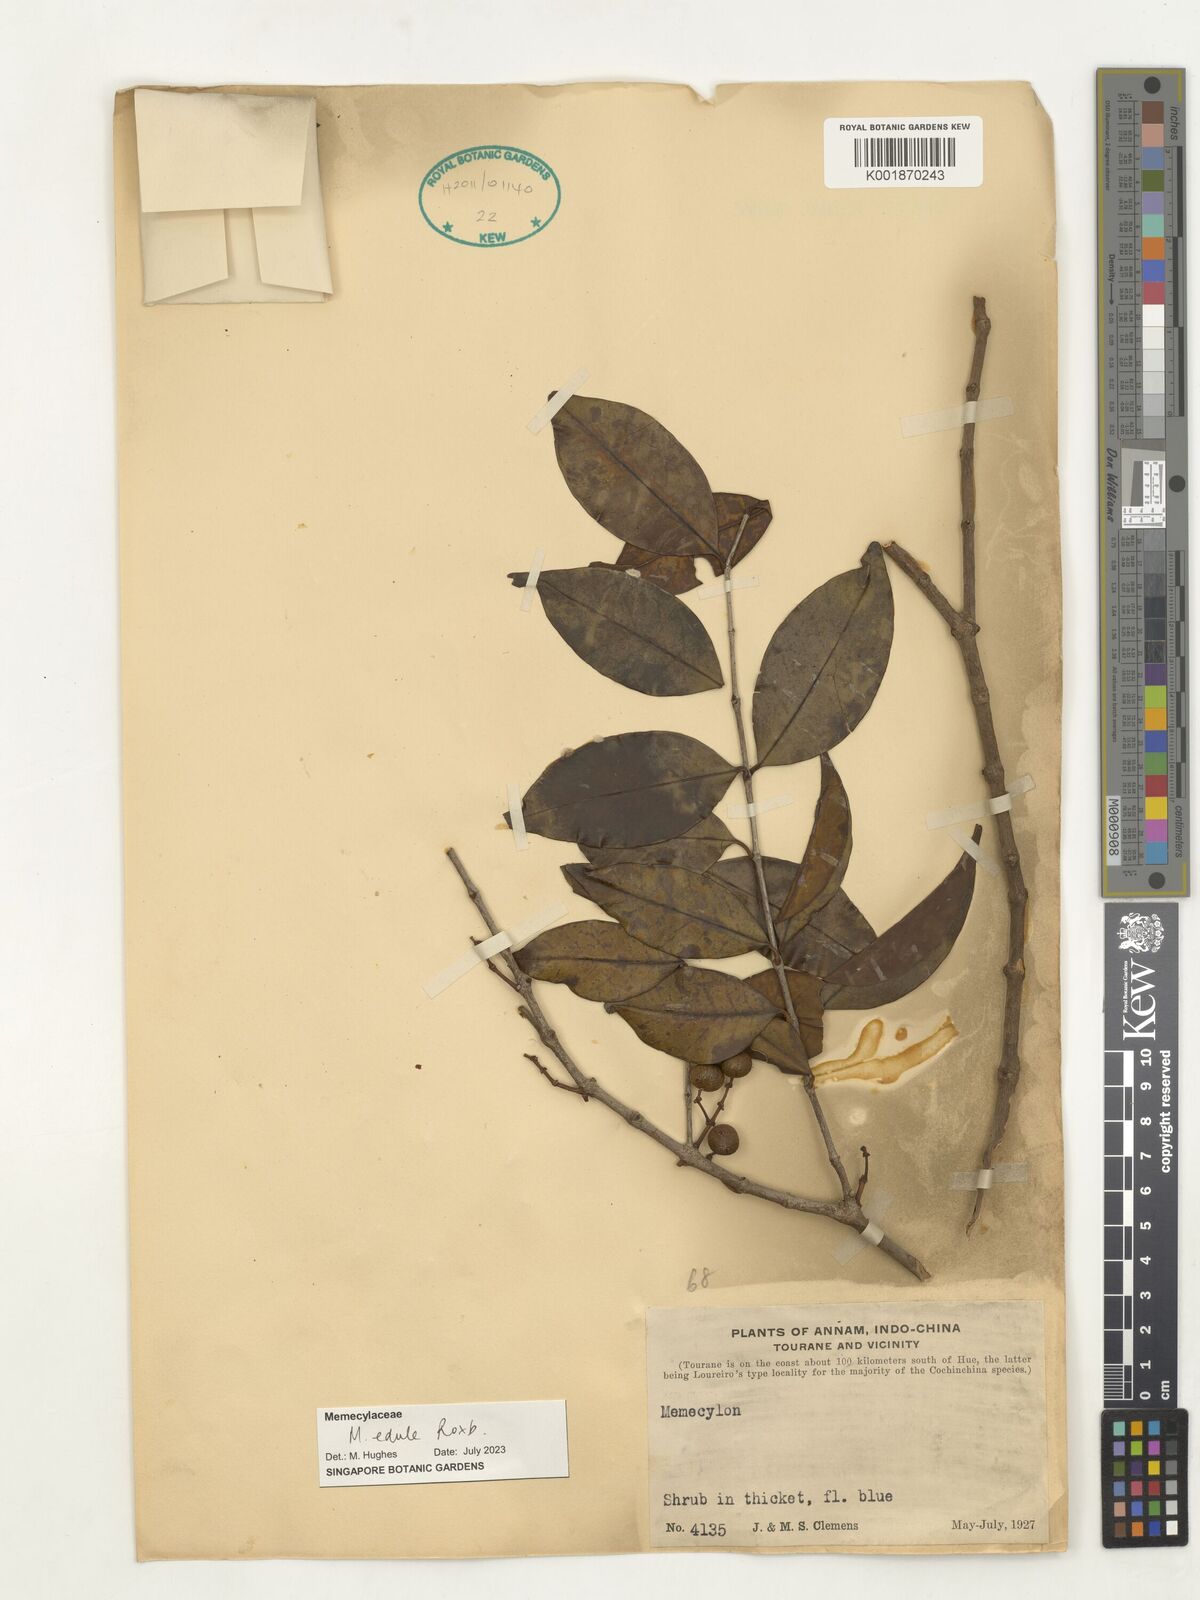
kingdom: Plantae
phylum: Tracheophyta
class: Magnoliopsida
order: Myrtales
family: Melastomataceae
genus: Memecylon
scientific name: Memecylon edule
